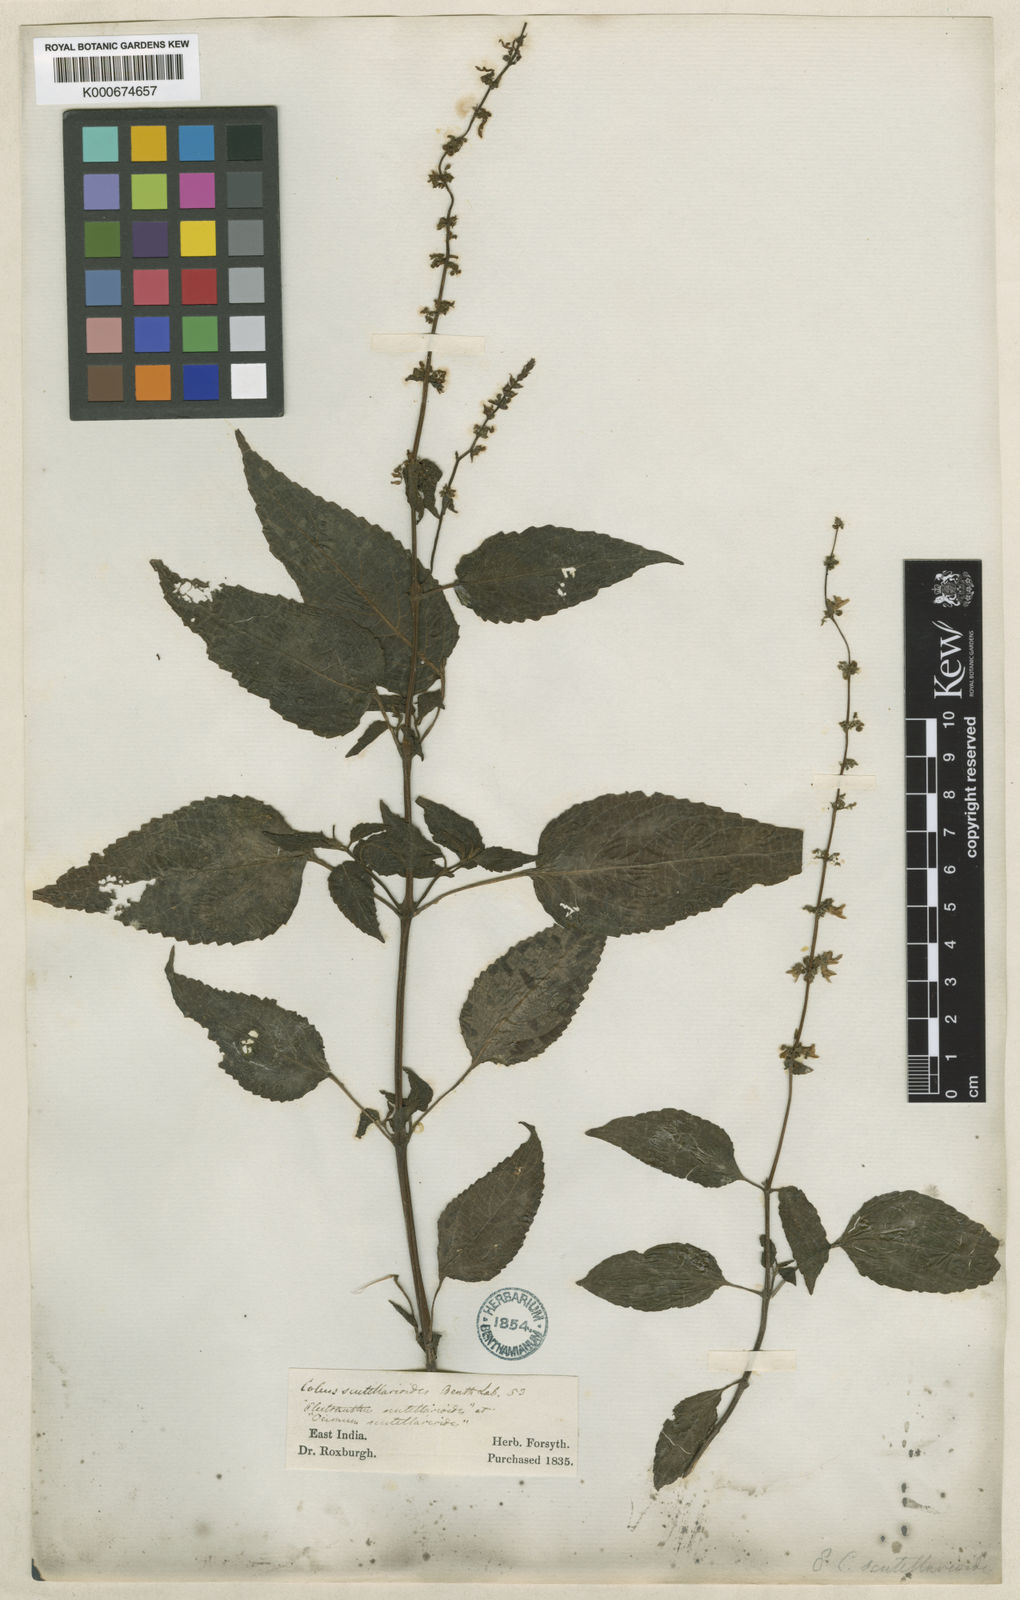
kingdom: Plantae
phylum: Tracheophyta
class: Magnoliopsida
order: Lamiales
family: Lamiaceae
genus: Coleus
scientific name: Coleus scutellarioides
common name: Coleus
